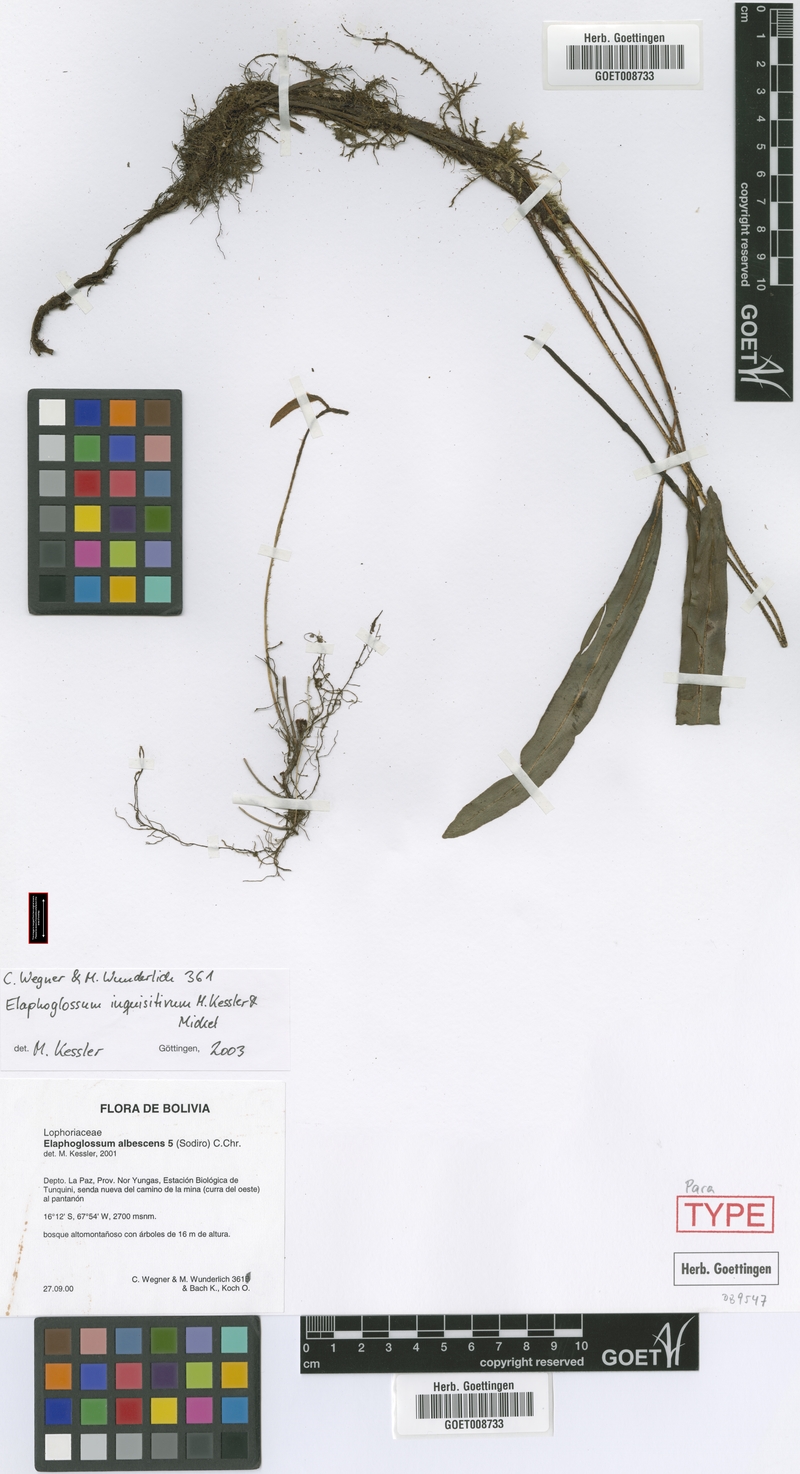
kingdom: Plantae
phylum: Tracheophyta
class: Polypodiopsida
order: Polypodiales
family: Dryopteridaceae
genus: Elaphoglossum
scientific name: Elaphoglossum inquisitivum
